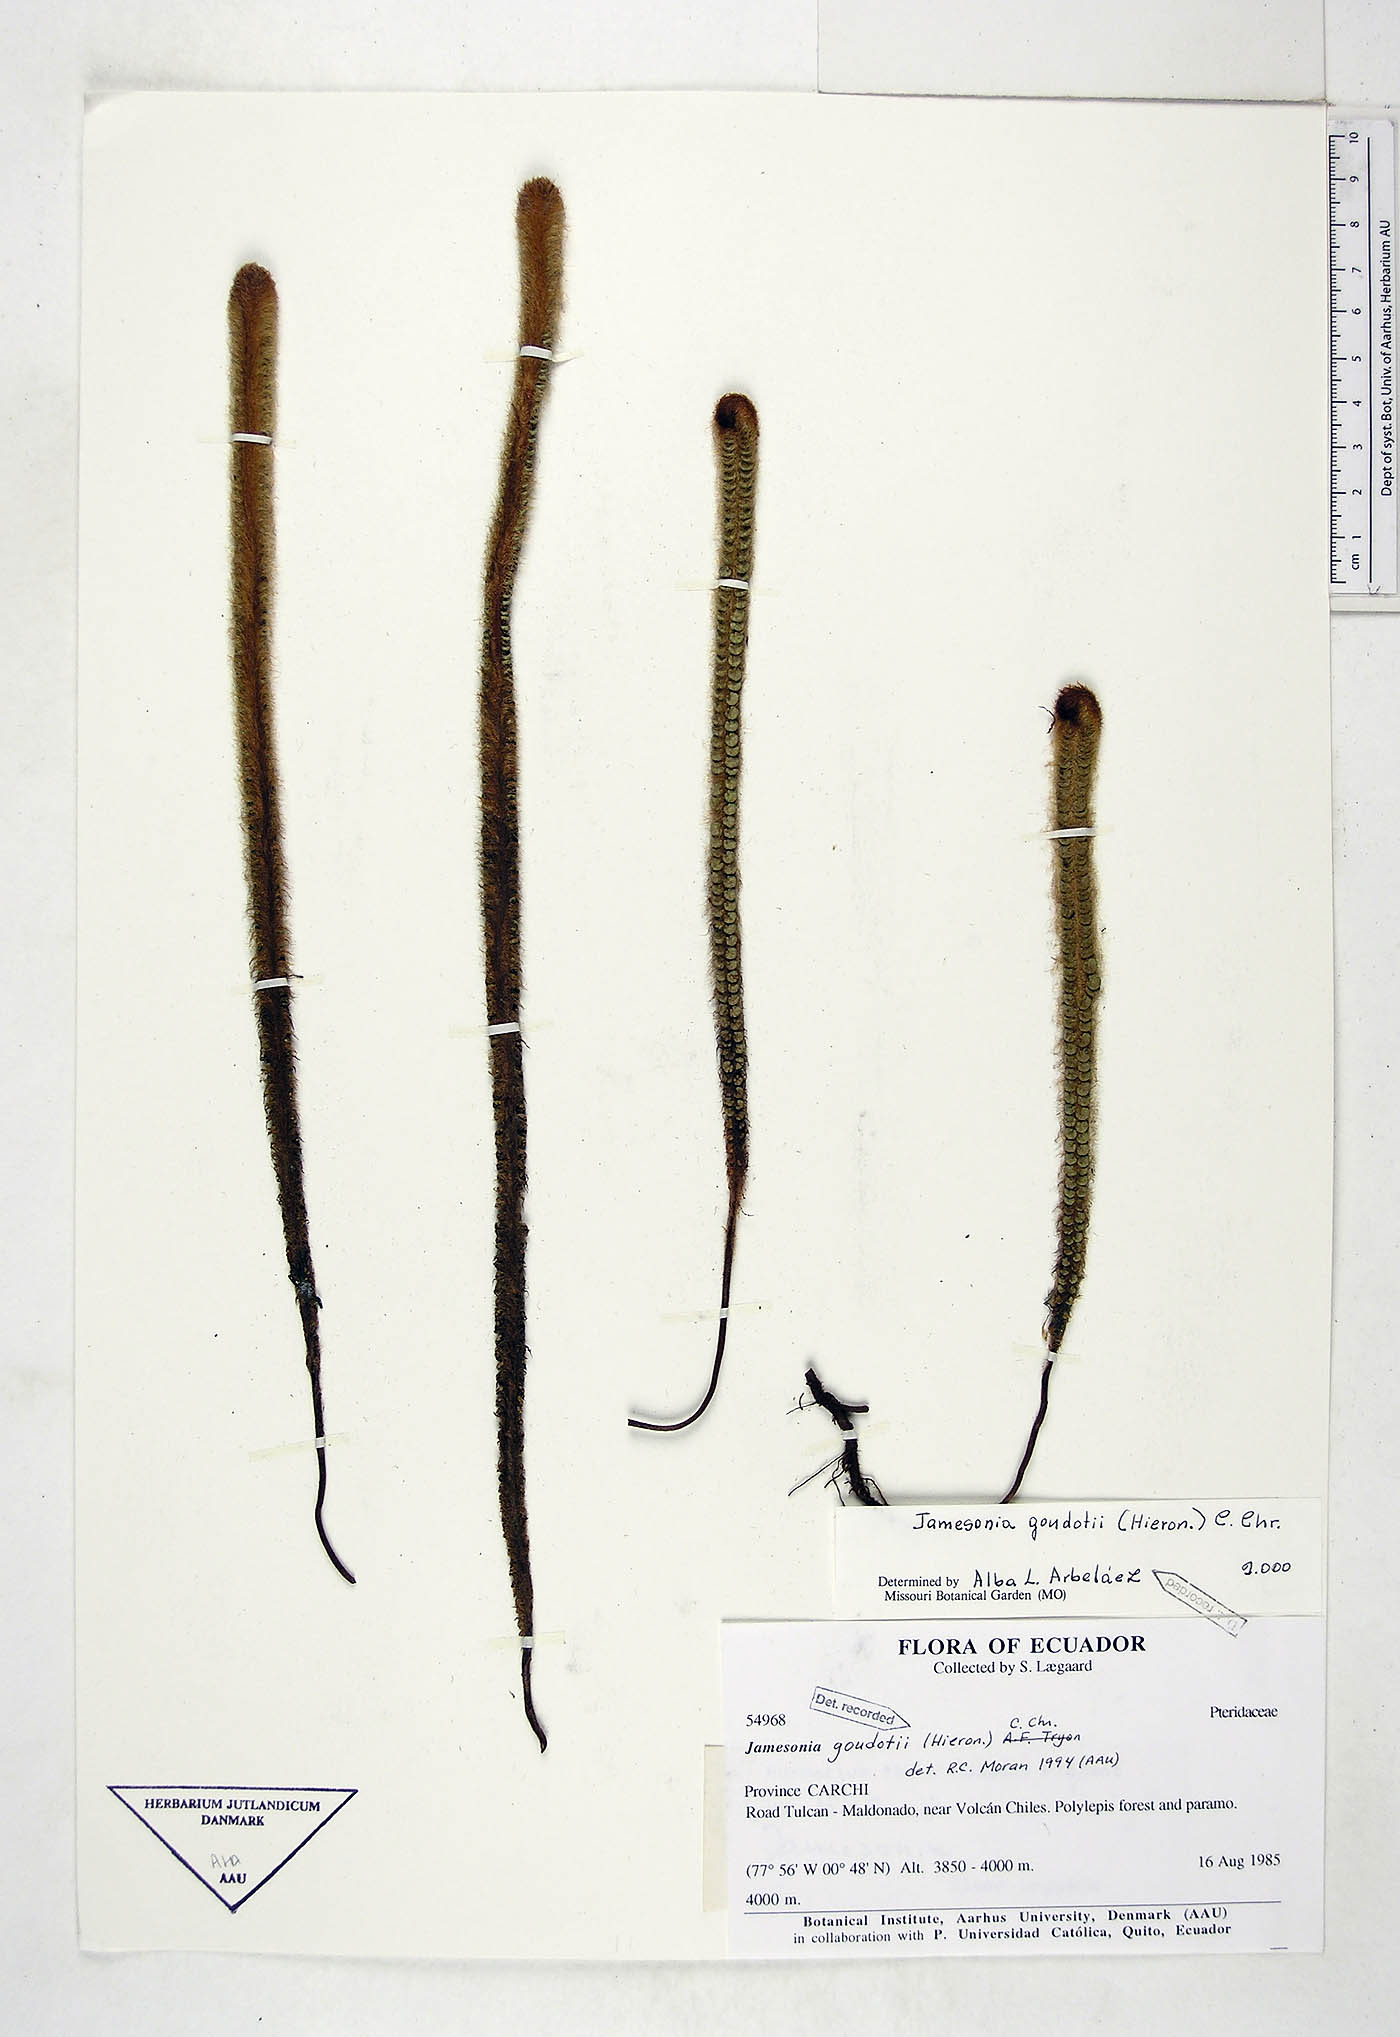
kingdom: Plantae
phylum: Tracheophyta
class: Polypodiopsida
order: Polypodiales
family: Pteridaceae
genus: Jamesonia
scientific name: Jamesonia goudotii
